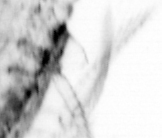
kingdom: Animalia
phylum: Chaetognatha
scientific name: Chaetognatha
